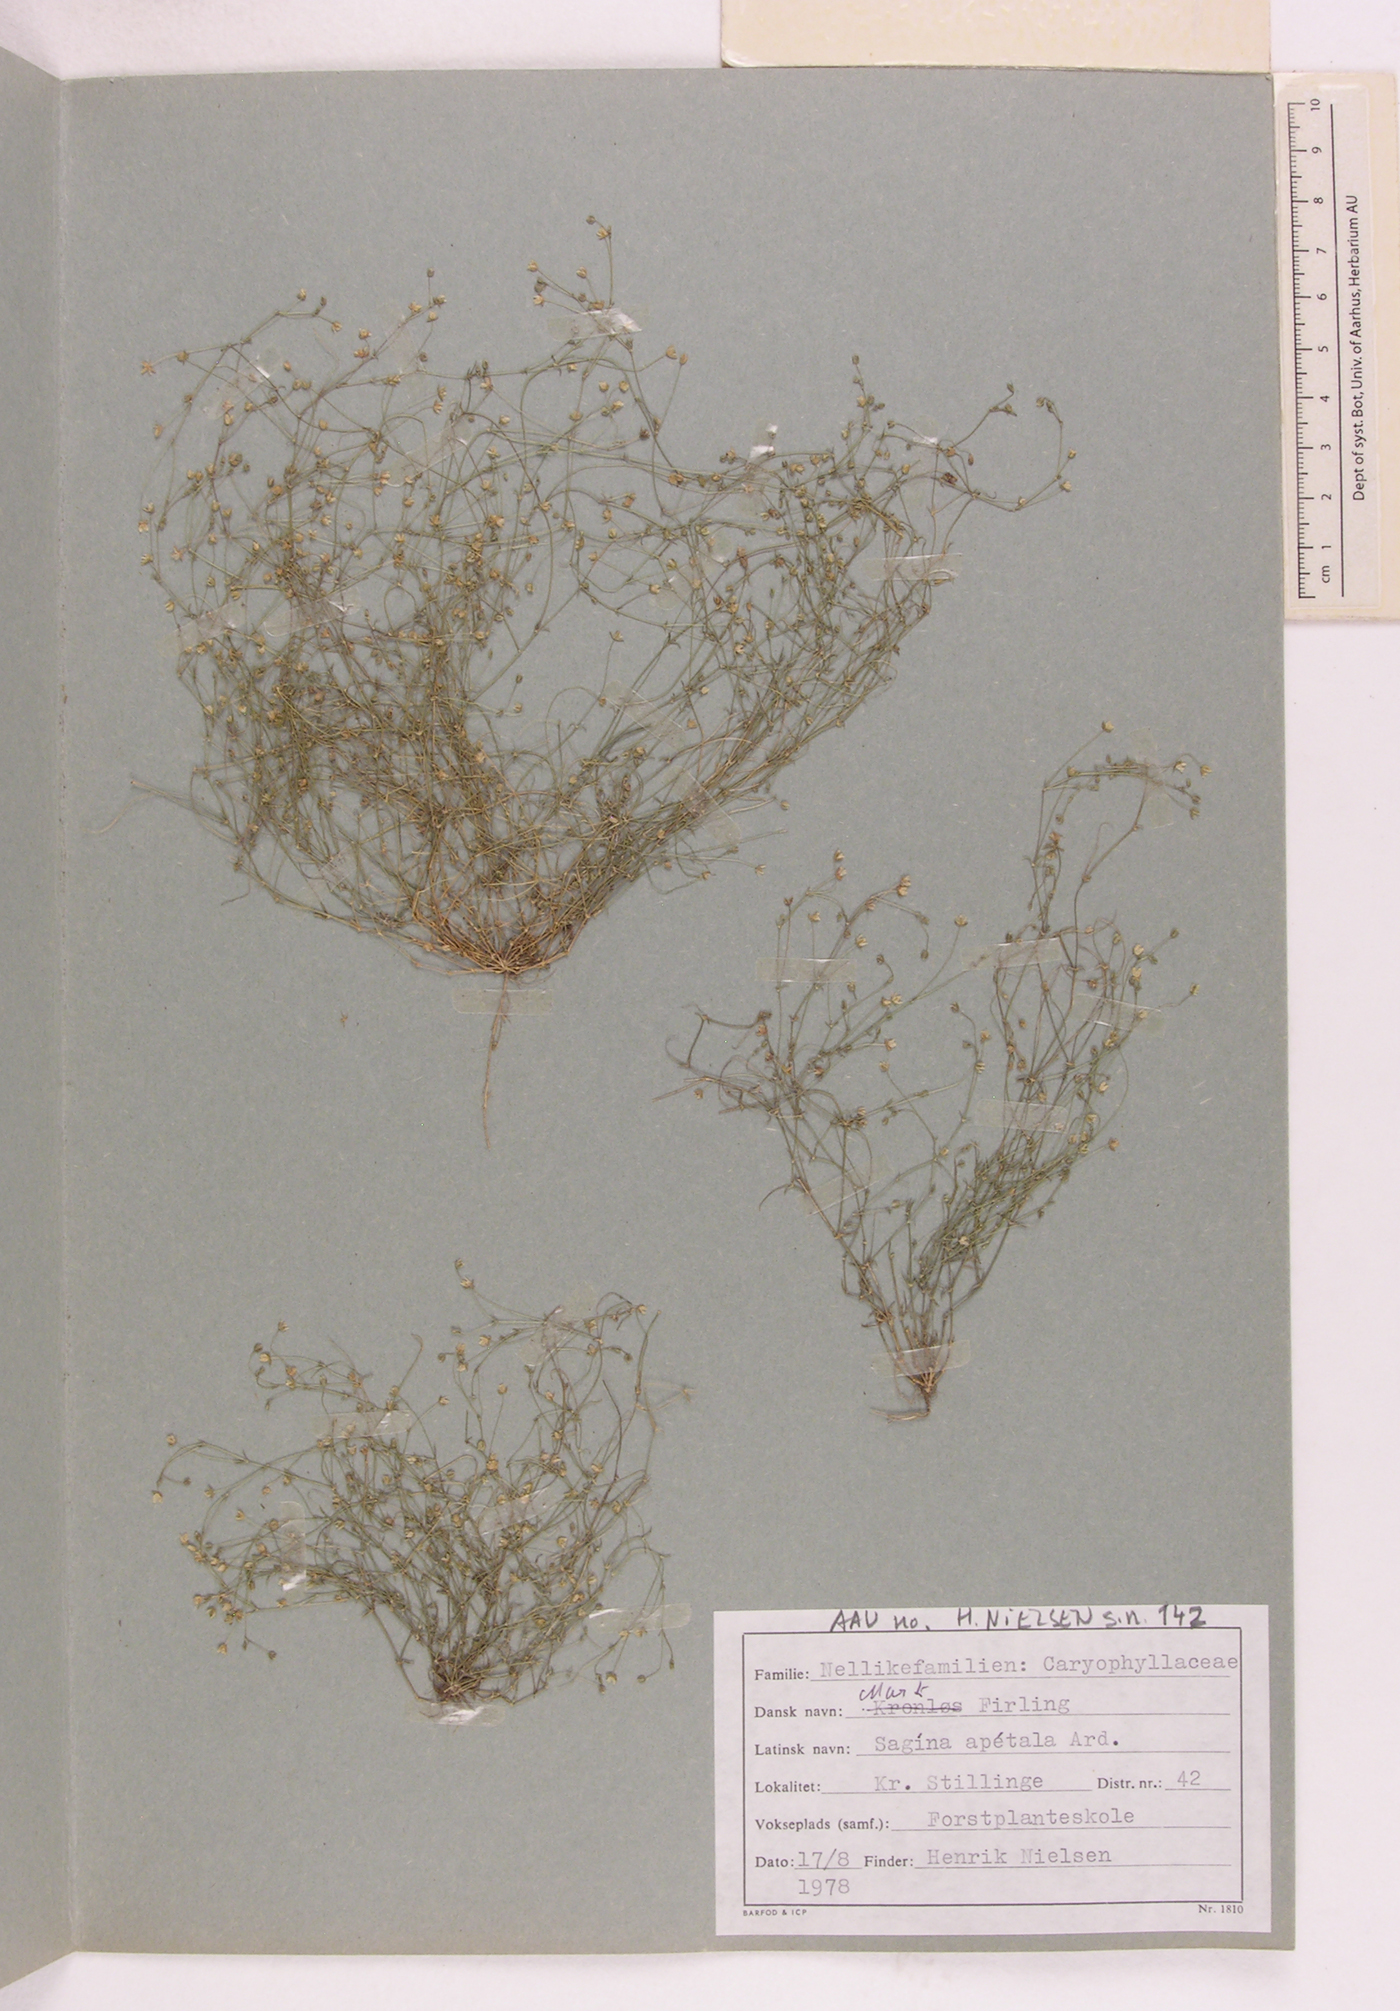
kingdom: Plantae
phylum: Tracheophyta
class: Magnoliopsida
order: Caryophyllales
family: Caryophyllaceae
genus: Sagina
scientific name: Sagina apetala
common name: Annual pearlwort
